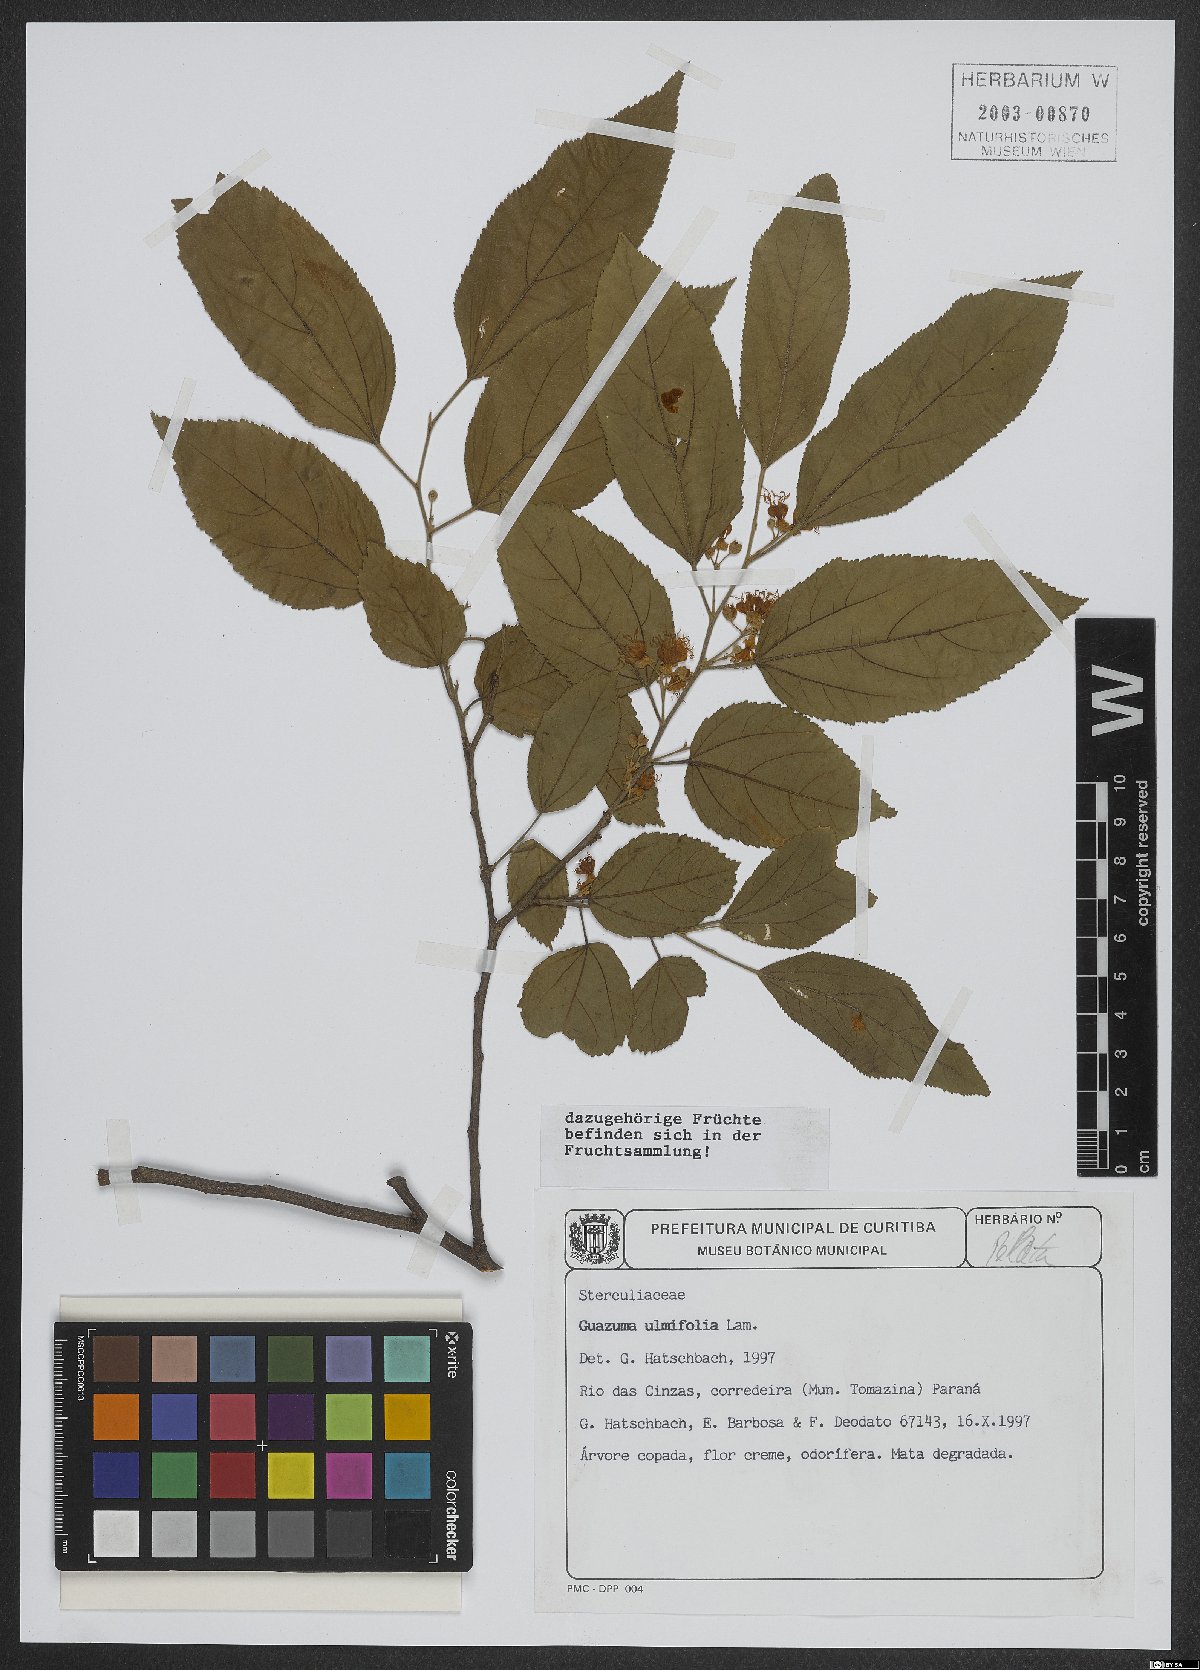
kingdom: Plantae
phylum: Tracheophyta
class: Magnoliopsida
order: Malvales
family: Malvaceae
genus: Guazuma
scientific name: Guazuma ulmifolia
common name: Bastard-cedar
